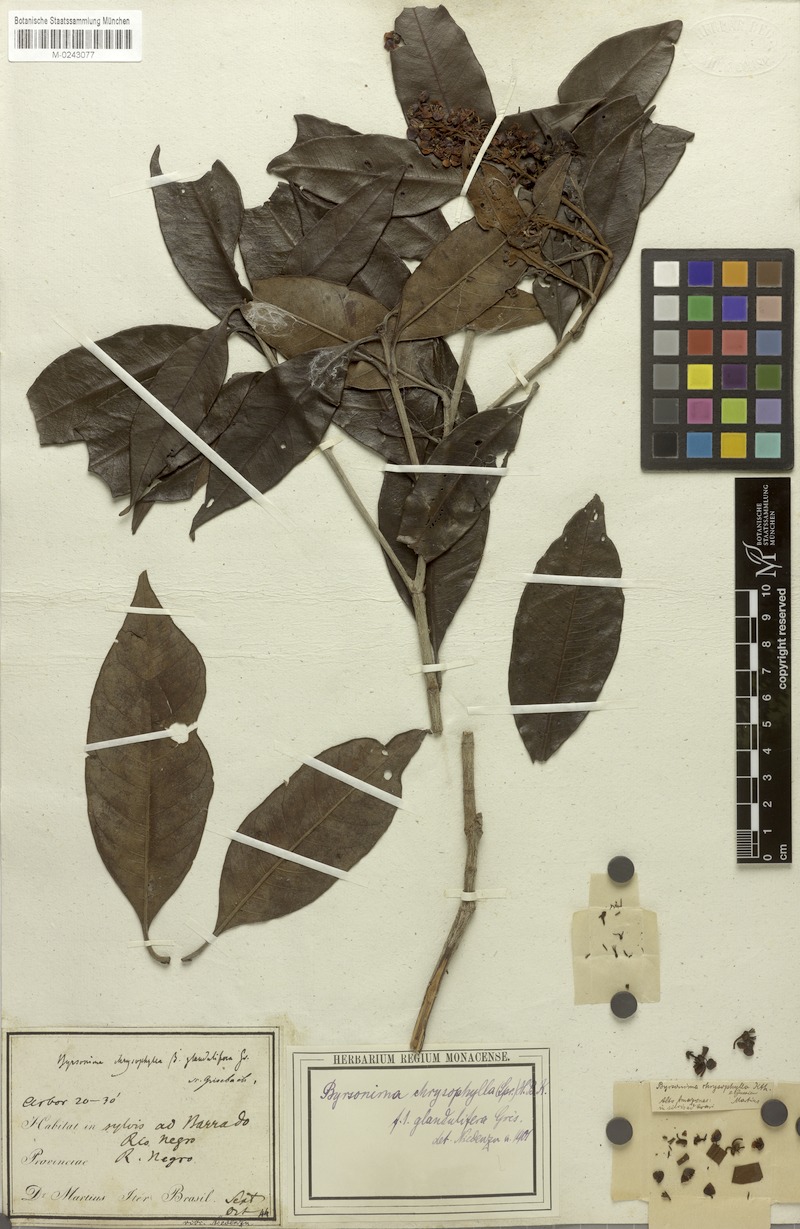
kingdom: Plantae
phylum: Tracheophyta
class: Magnoliopsida
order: Malpighiales
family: Malpighiaceae
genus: Byrsonima
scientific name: Byrsonima chrysophylla
